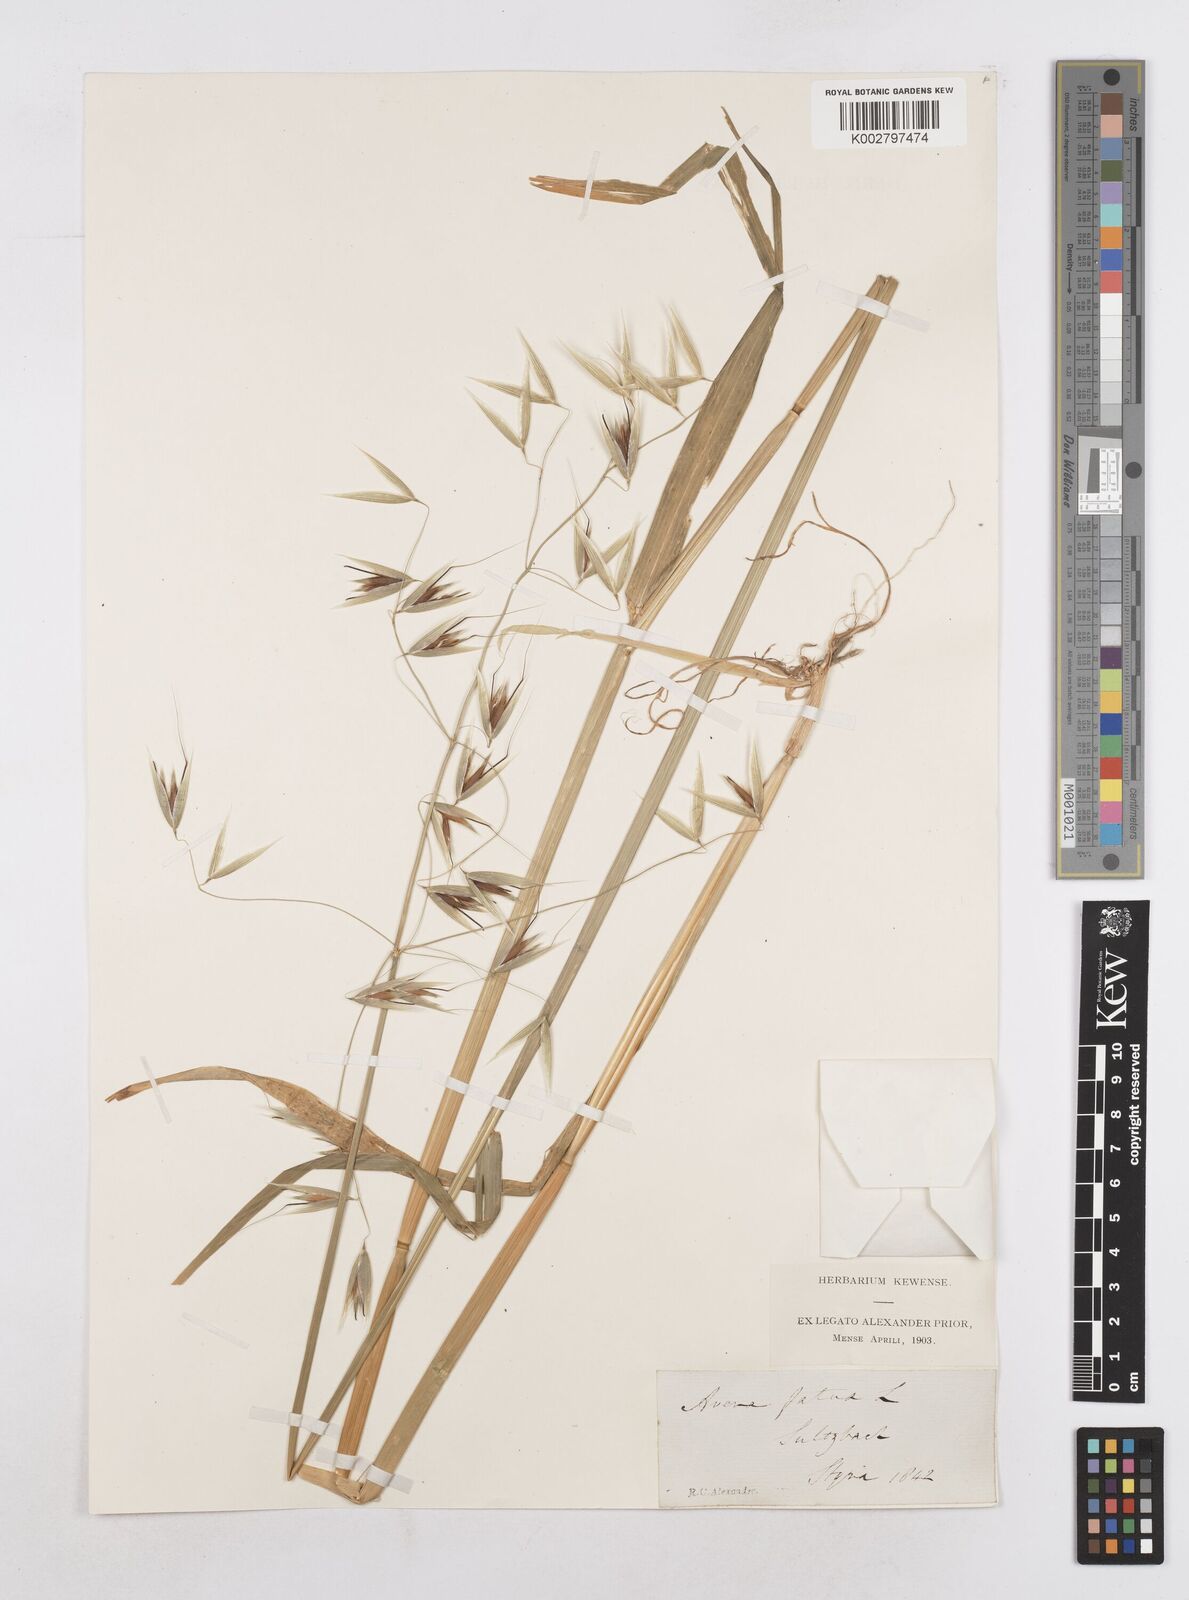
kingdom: Plantae
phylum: Tracheophyta
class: Liliopsida
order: Poales
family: Poaceae
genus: Avena
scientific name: Avena fatua
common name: Wild oat
